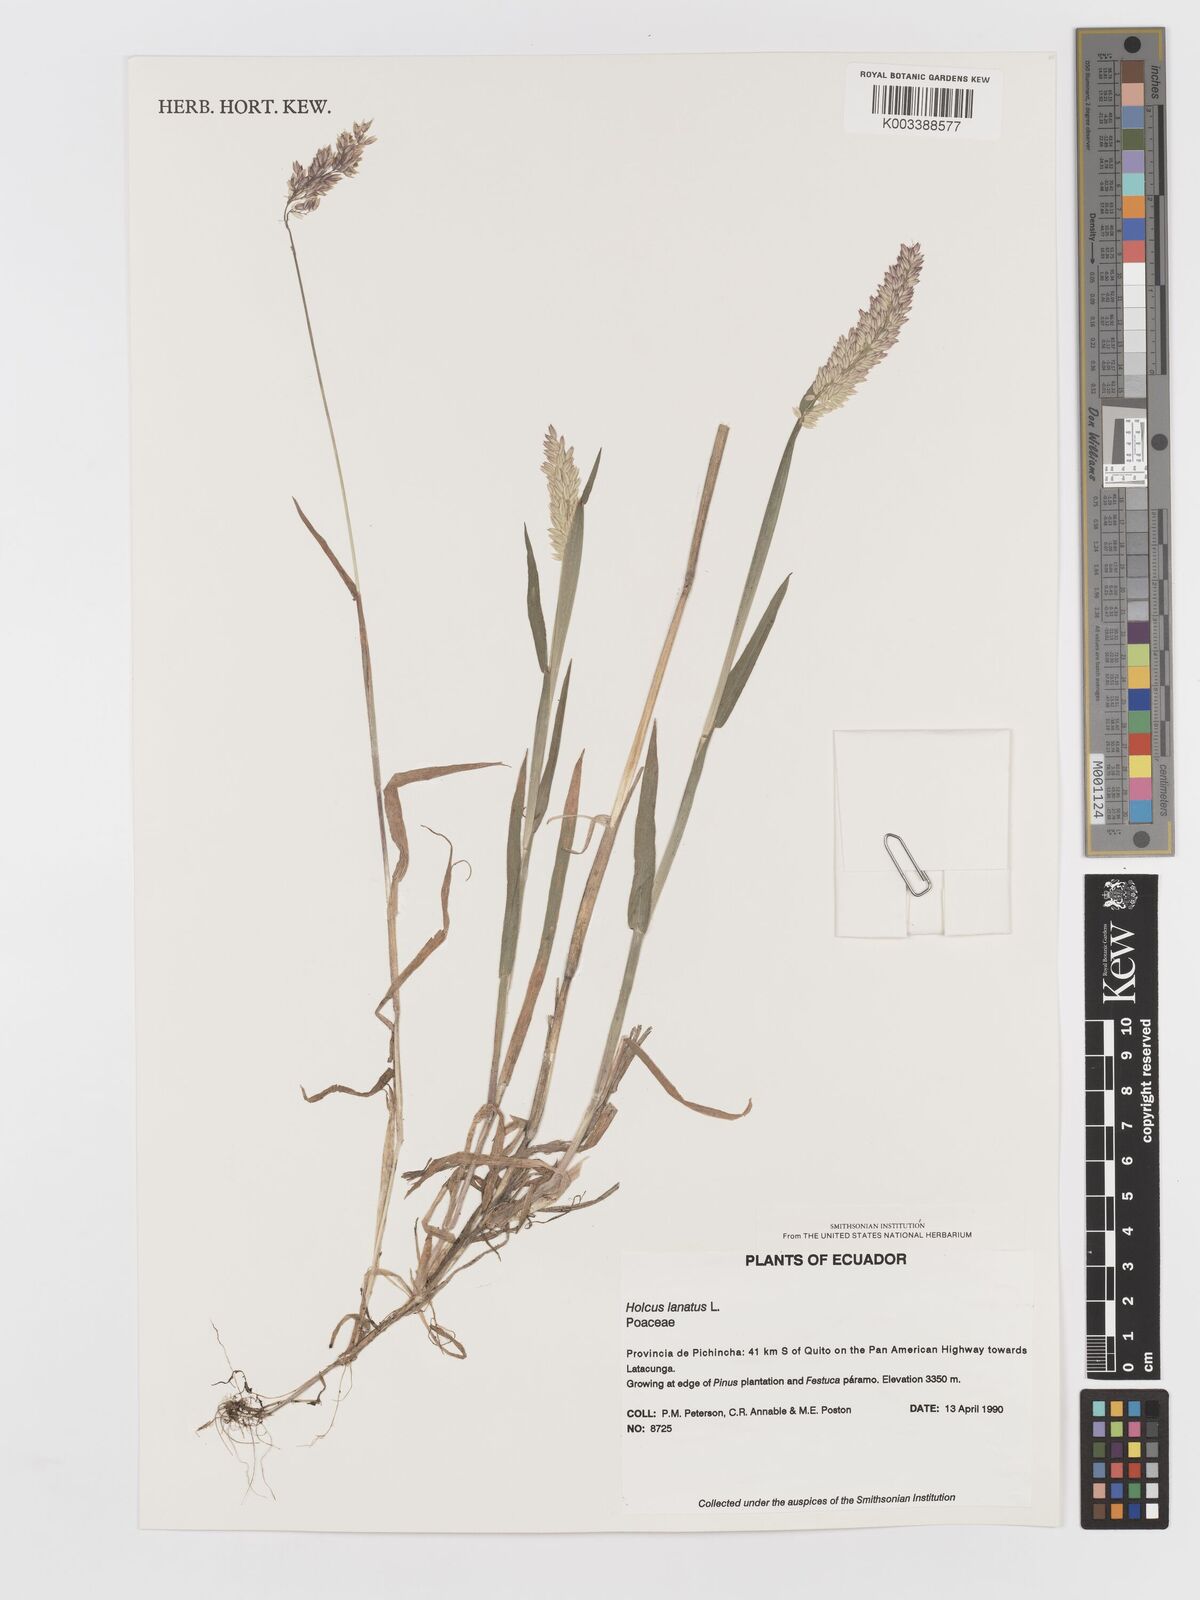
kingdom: Plantae
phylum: Tracheophyta
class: Liliopsida
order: Poales
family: Poaceae
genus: Holcus
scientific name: Holcus lanatus
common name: Yorkshire-fog
